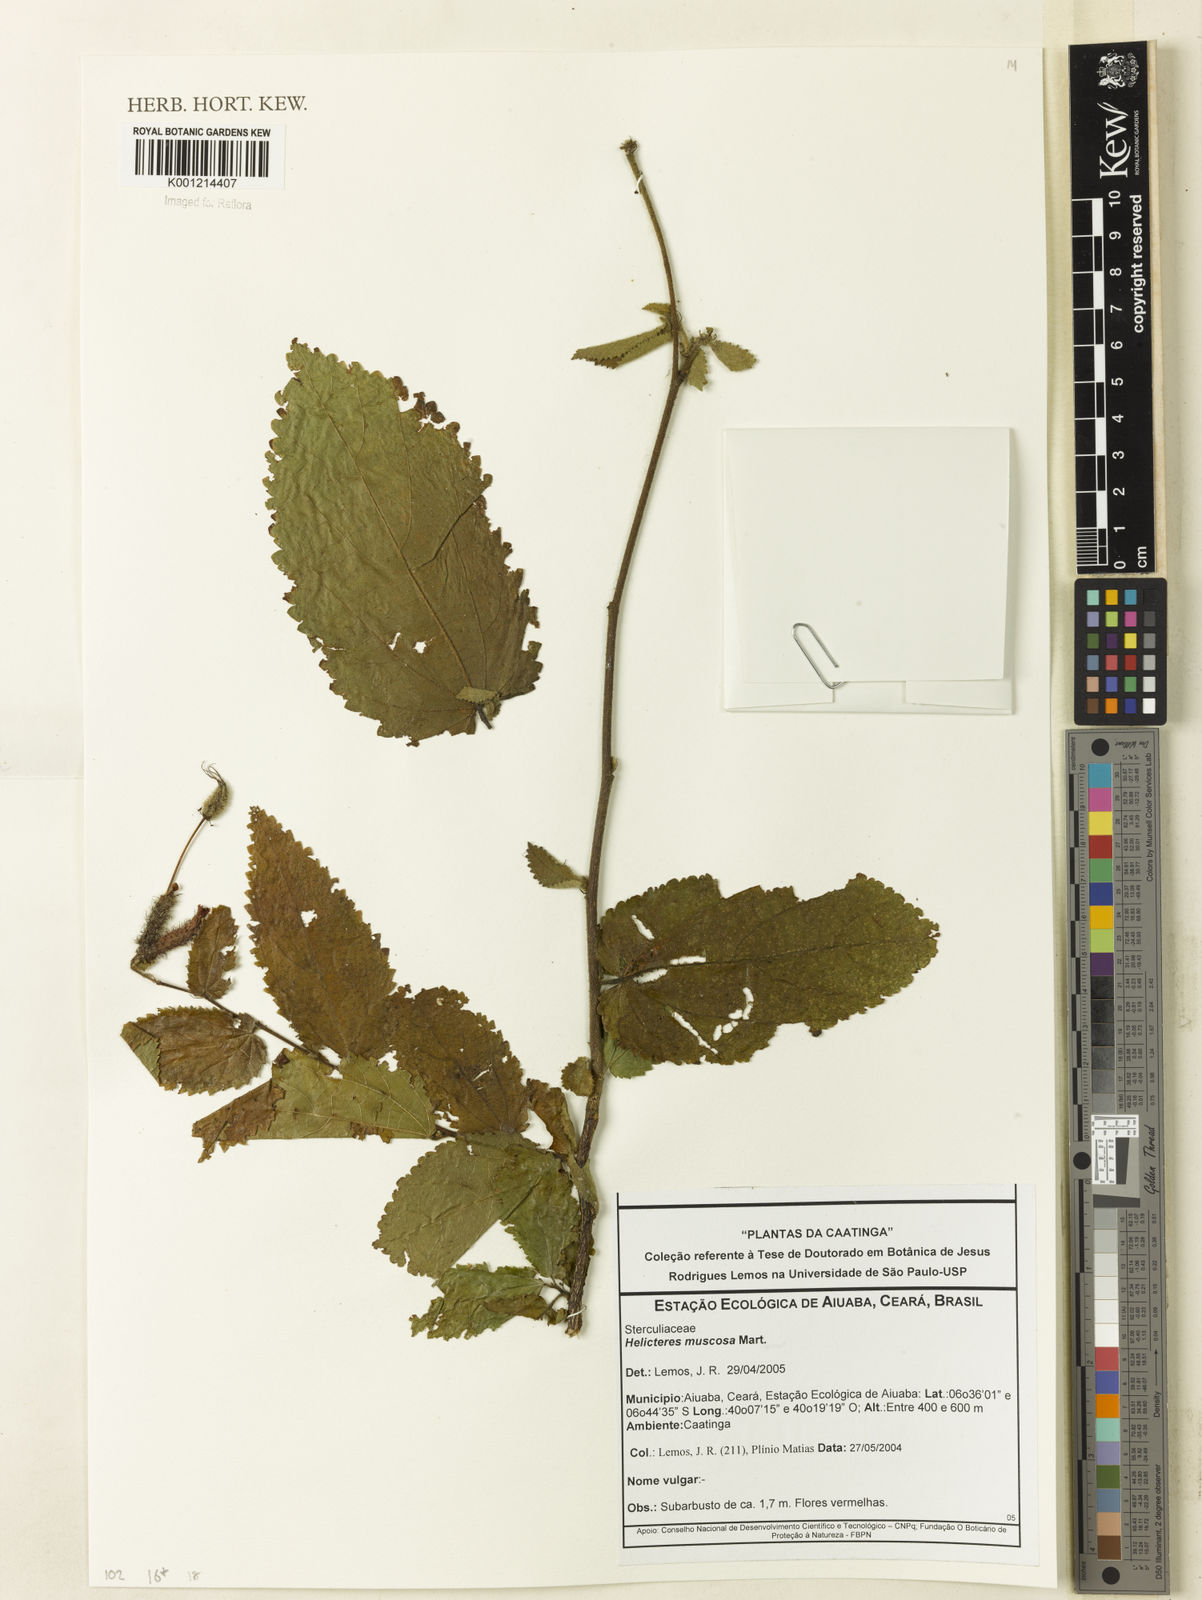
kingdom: Plantae
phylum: Tracheophyta
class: Magnoliopsida
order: Malvales
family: Malvaceae
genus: Helicteres
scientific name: Helicteres muscosa
